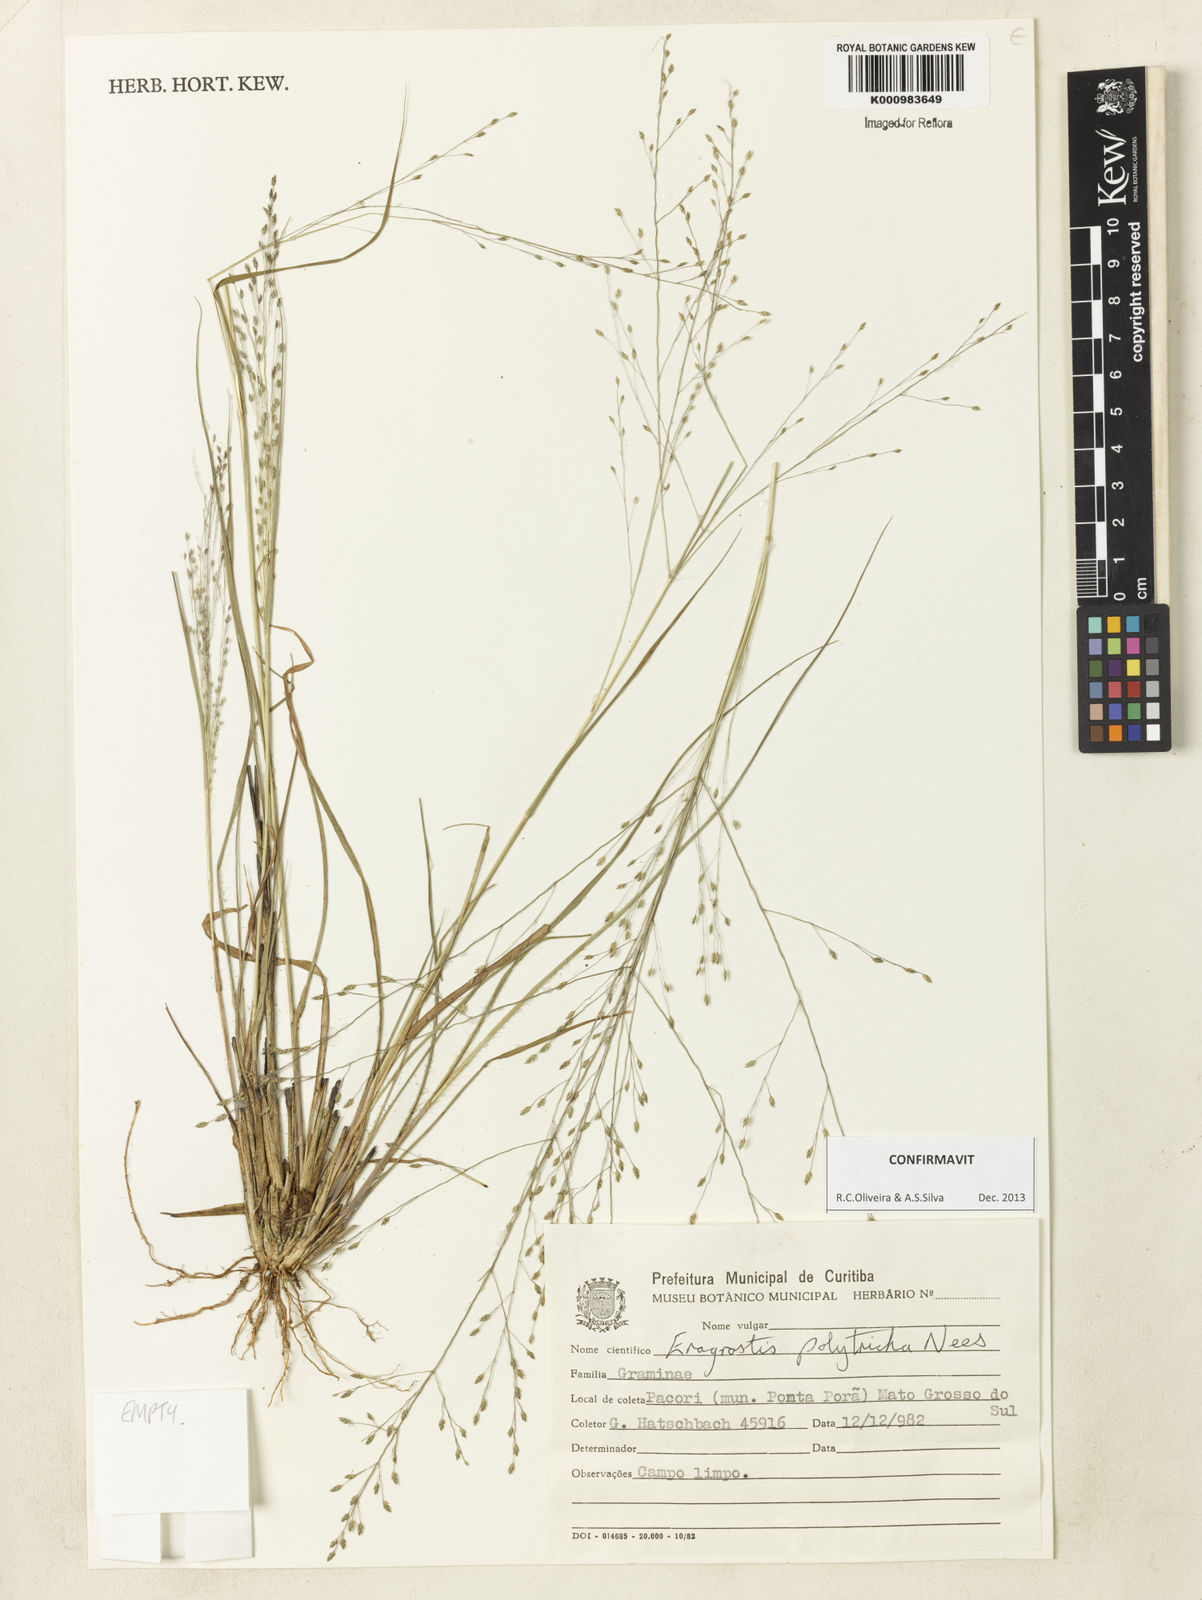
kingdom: Plantae
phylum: Tracheophyta
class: Liliopsida
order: Poales
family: Poaceae
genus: Eragrostis
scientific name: Eragrostis polytricha
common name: Hairy-sheath love grass
